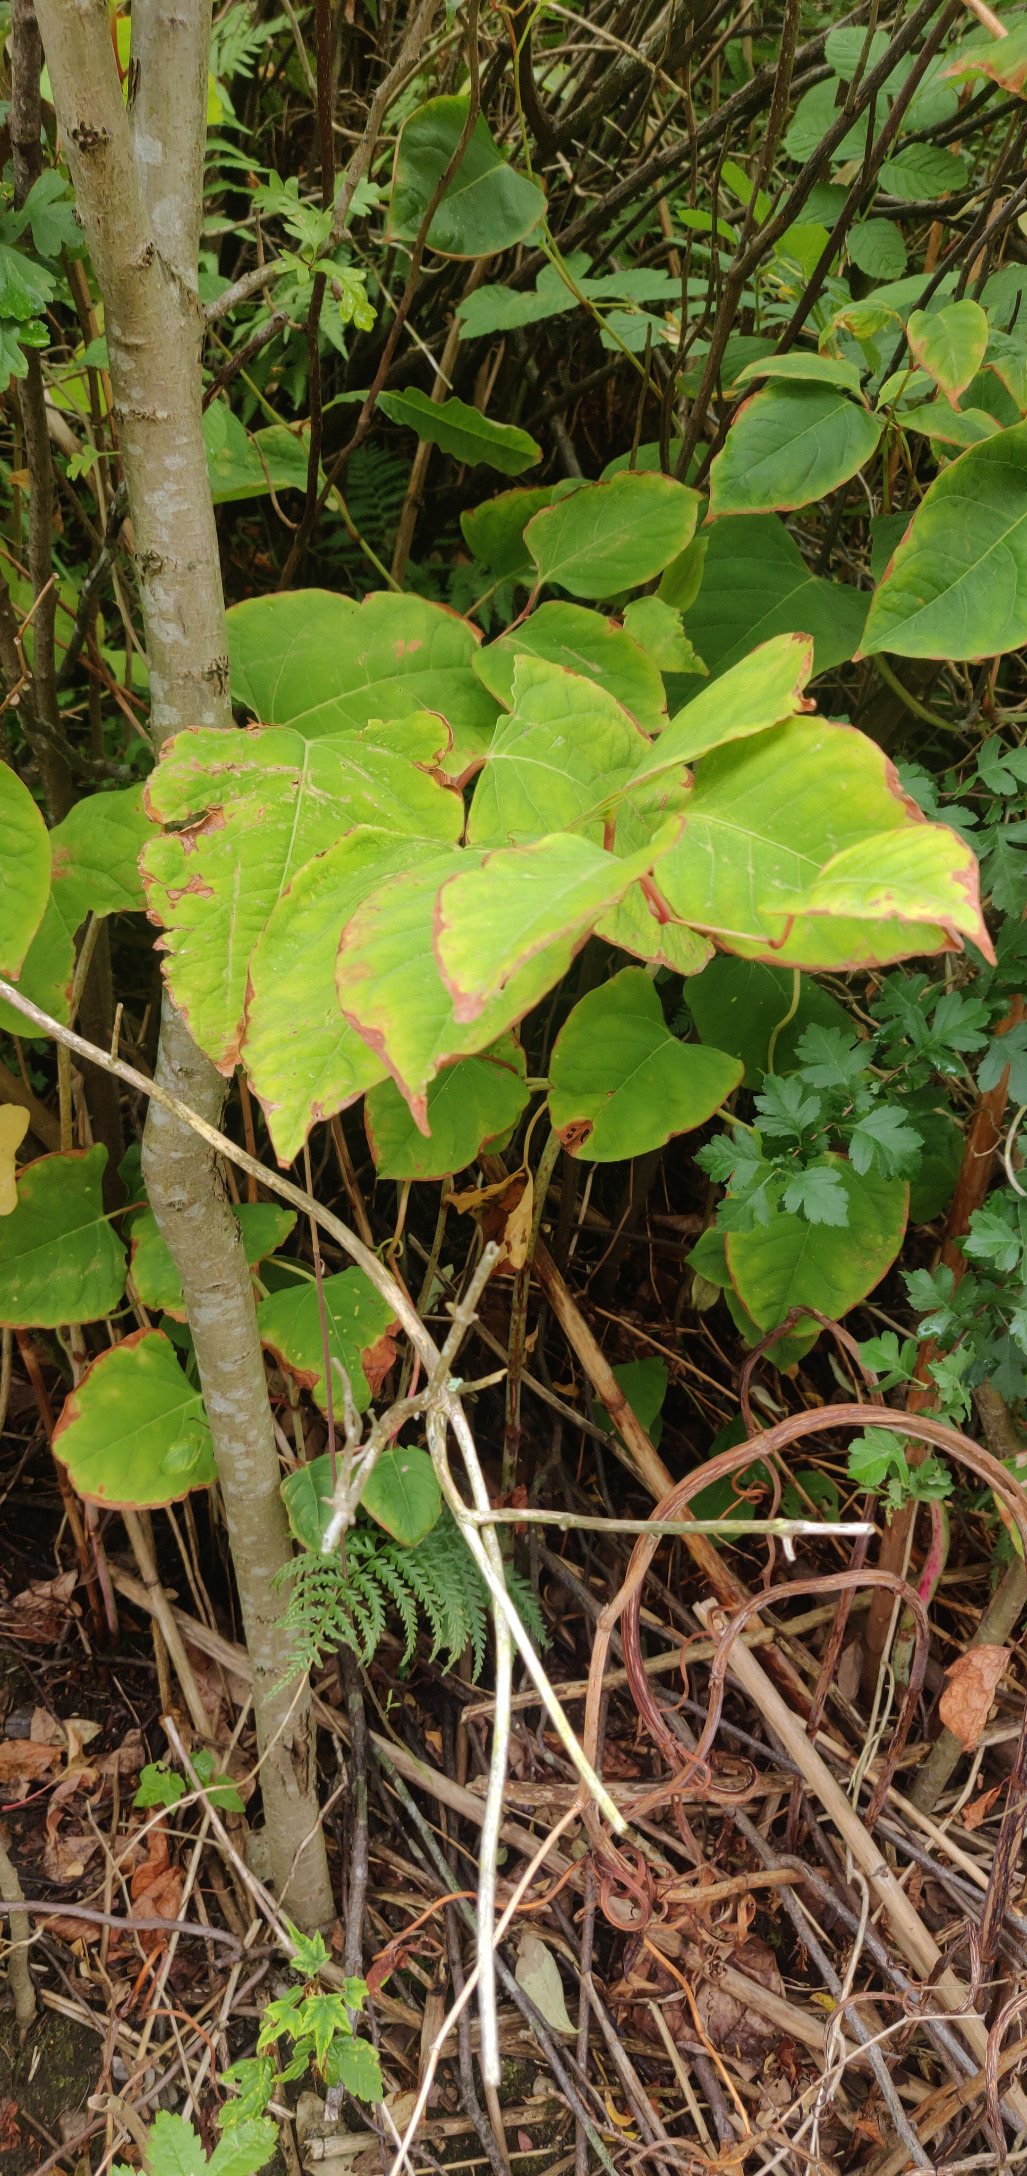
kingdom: Plantae
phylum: Tracheophyta
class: Magnoliopsida
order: Caryophyllales
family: Polygonaceae
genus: Reynoutria
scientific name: Reynoutria bohemica
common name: Hybrid-pileurt
